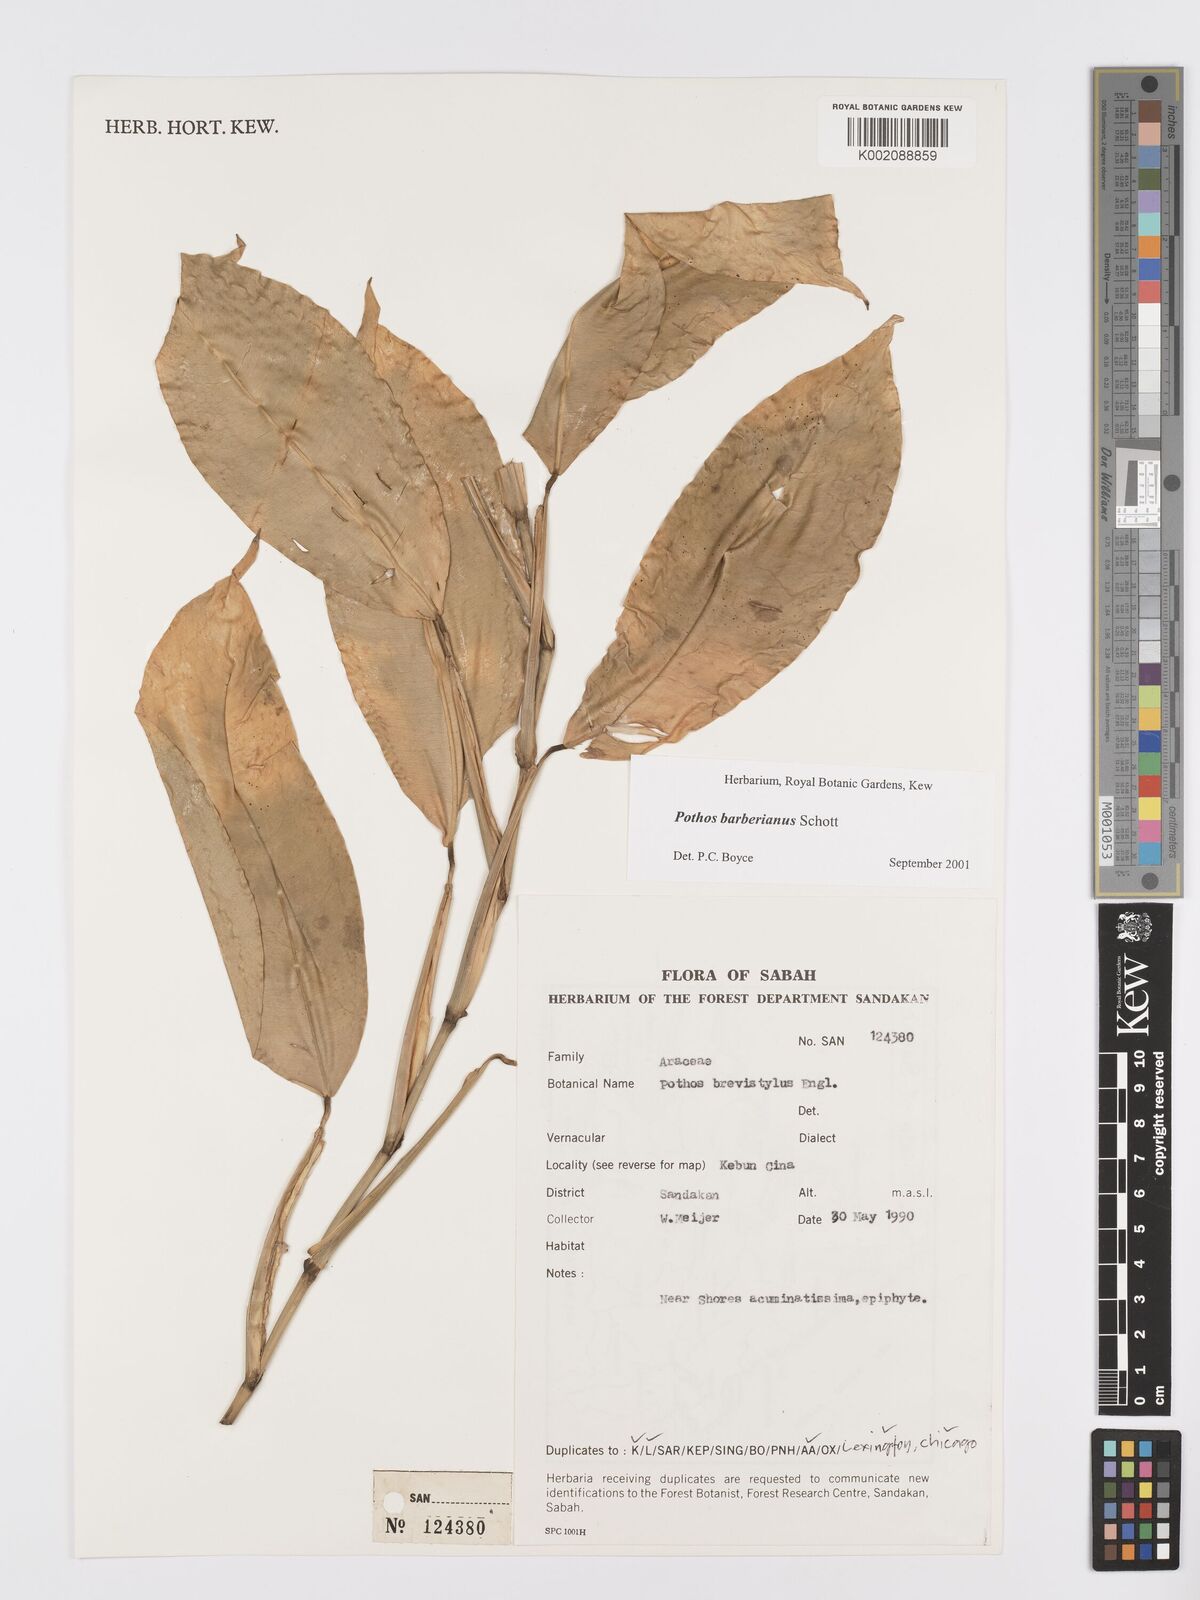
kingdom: Plantae
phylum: Tracheophyta
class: Liliopsida
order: Alismatales
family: Araceae
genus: Pothos
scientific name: Pothos barberianus
